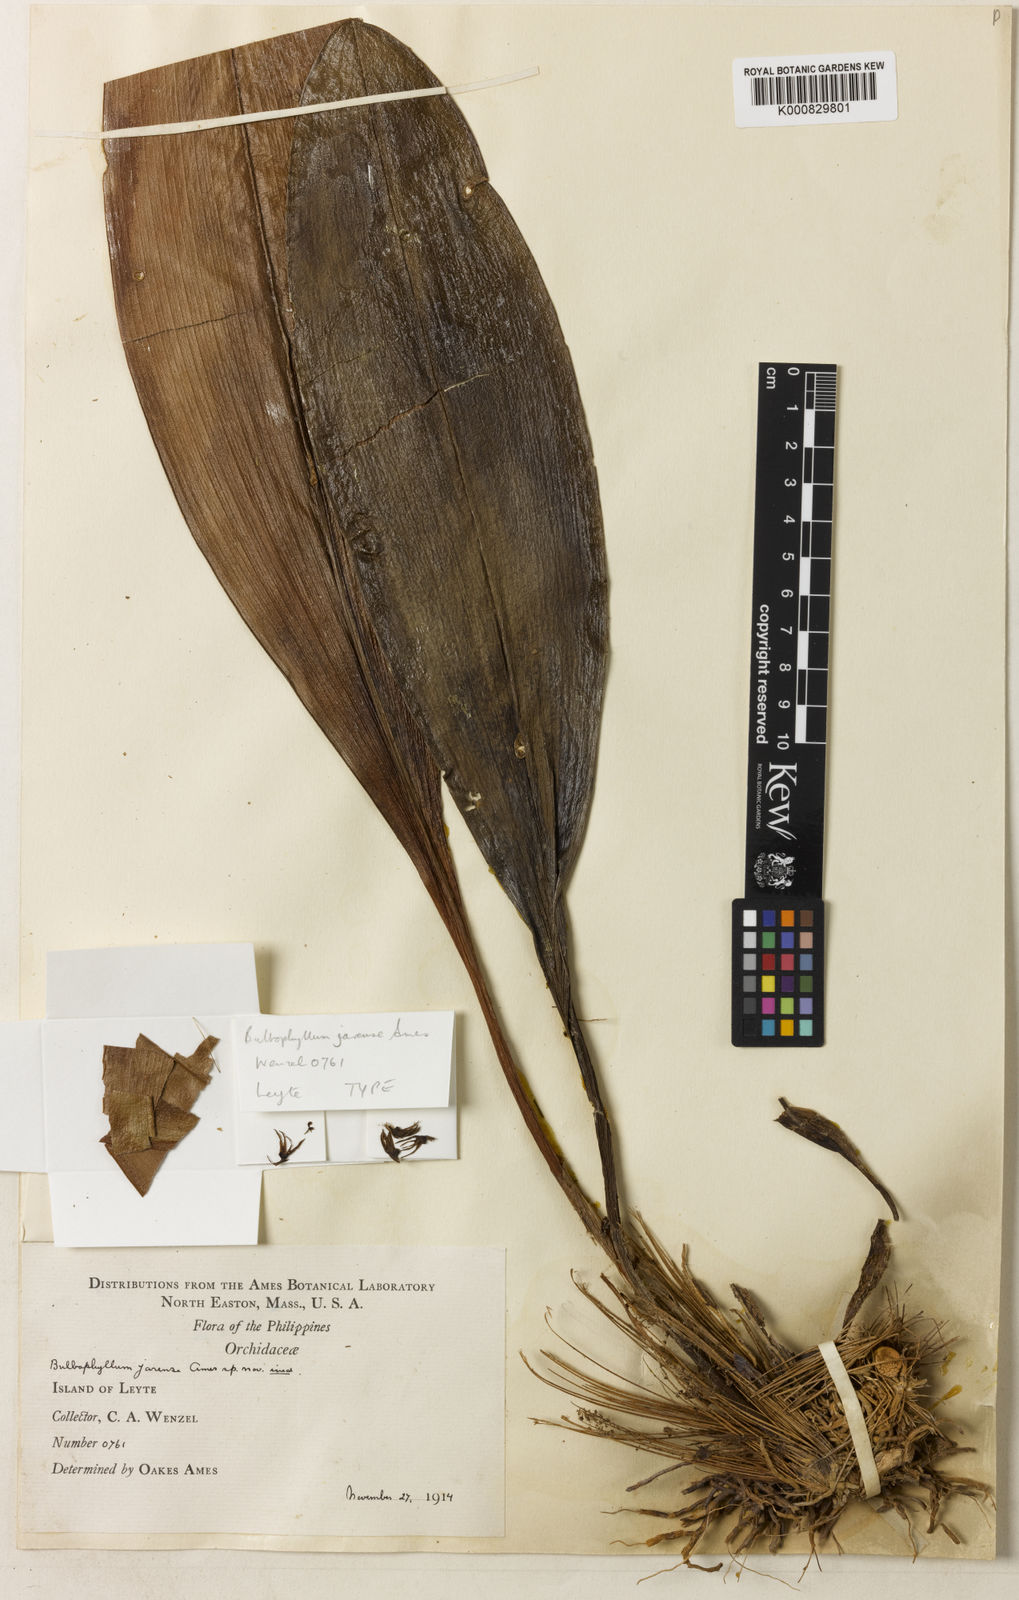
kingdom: Plantae
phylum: Tracheophyta
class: Liliopsida
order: Asparagales
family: Orchidaceae
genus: Bulbophyllum
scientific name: Bulbophyllum penduliscapum
